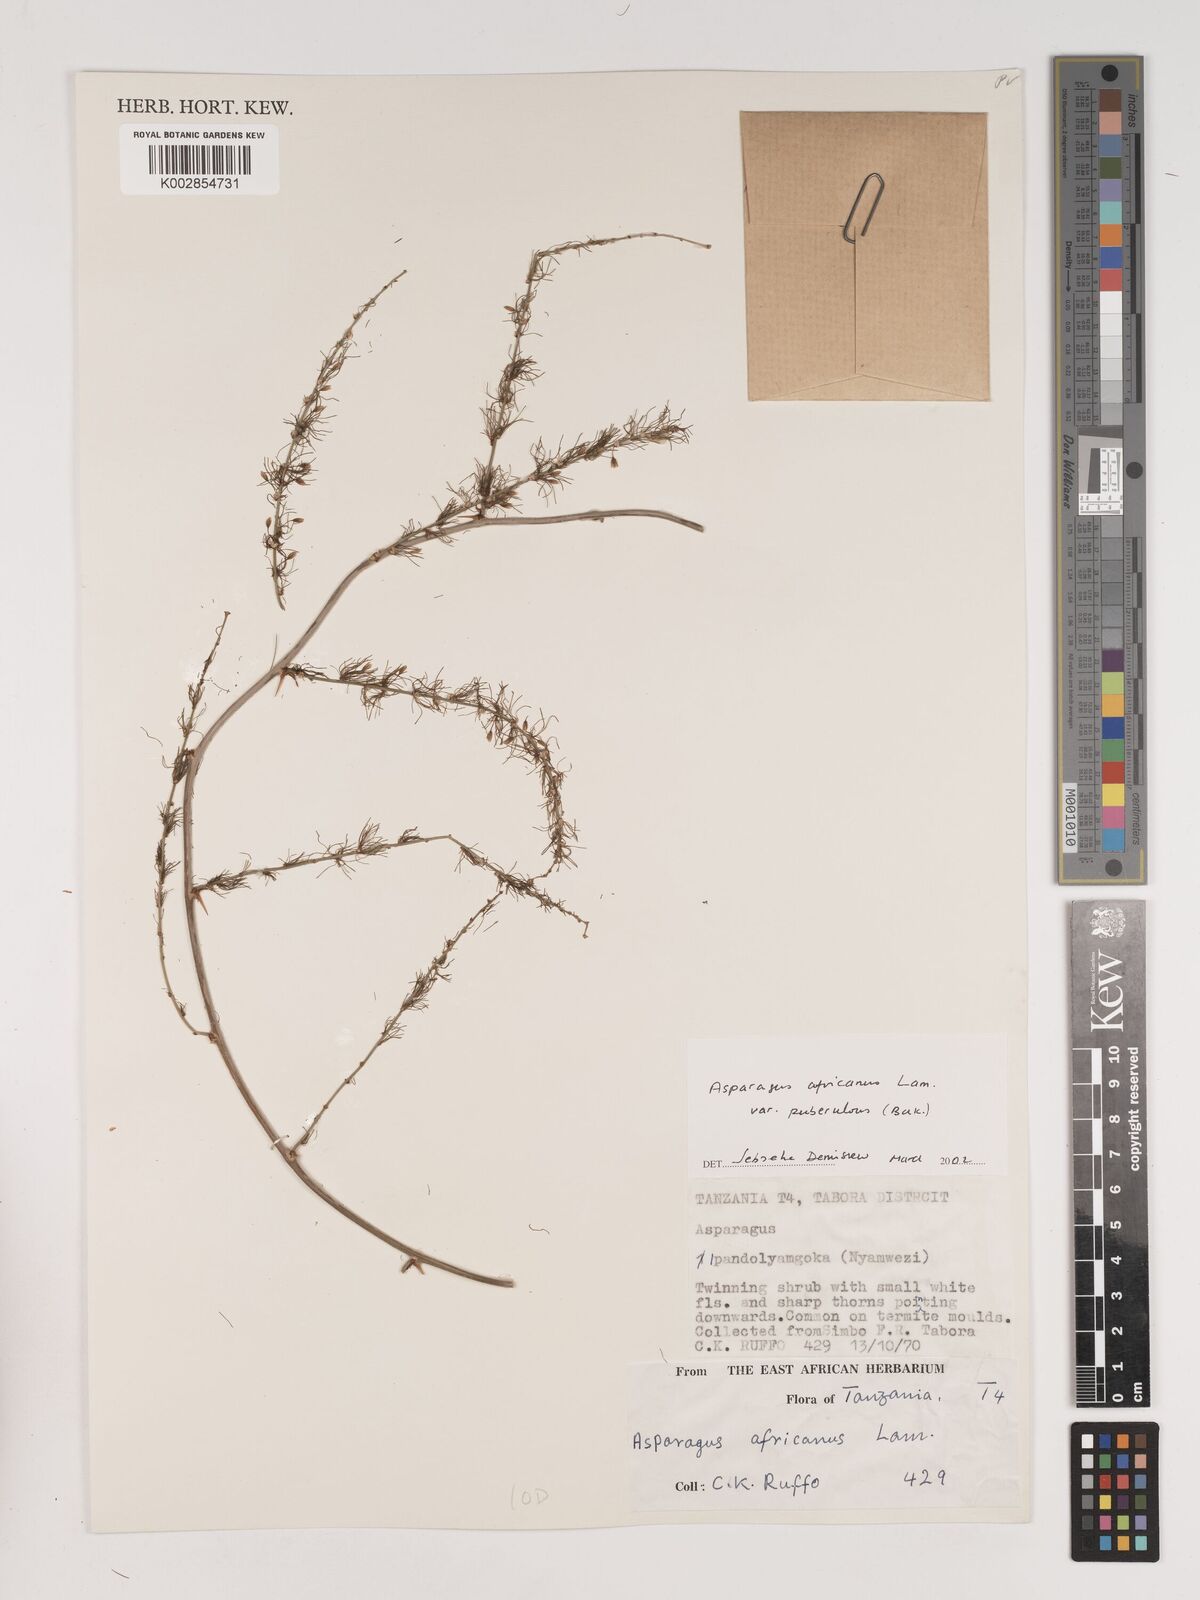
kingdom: Plantae
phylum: Tracheophyta
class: Liliopsida
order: Asparagales
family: Asparagaceae
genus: Asparagus
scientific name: Asparagus africanus
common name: Asparagus-fern
